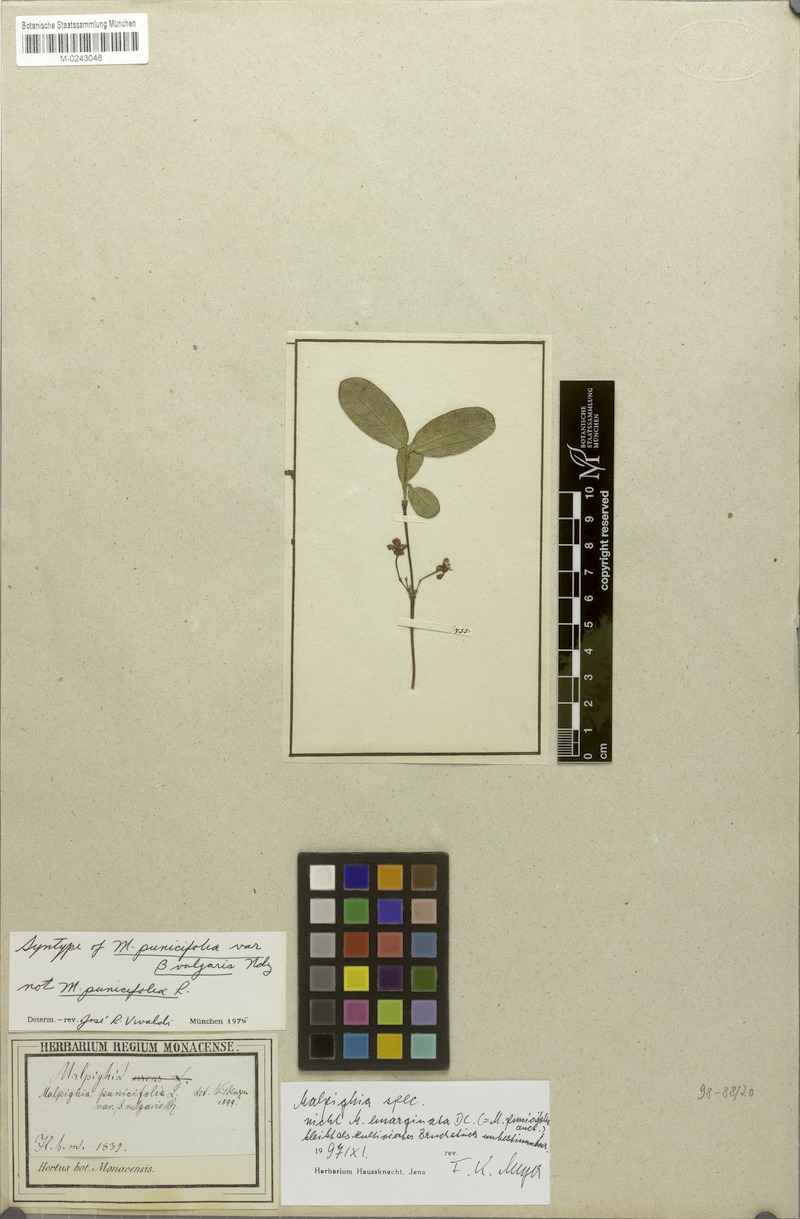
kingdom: Plantae
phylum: Tracheophyta
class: Magnoliopsida
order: Malpighiales
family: Malpighiaceae
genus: Malpighia
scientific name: Malpighia
